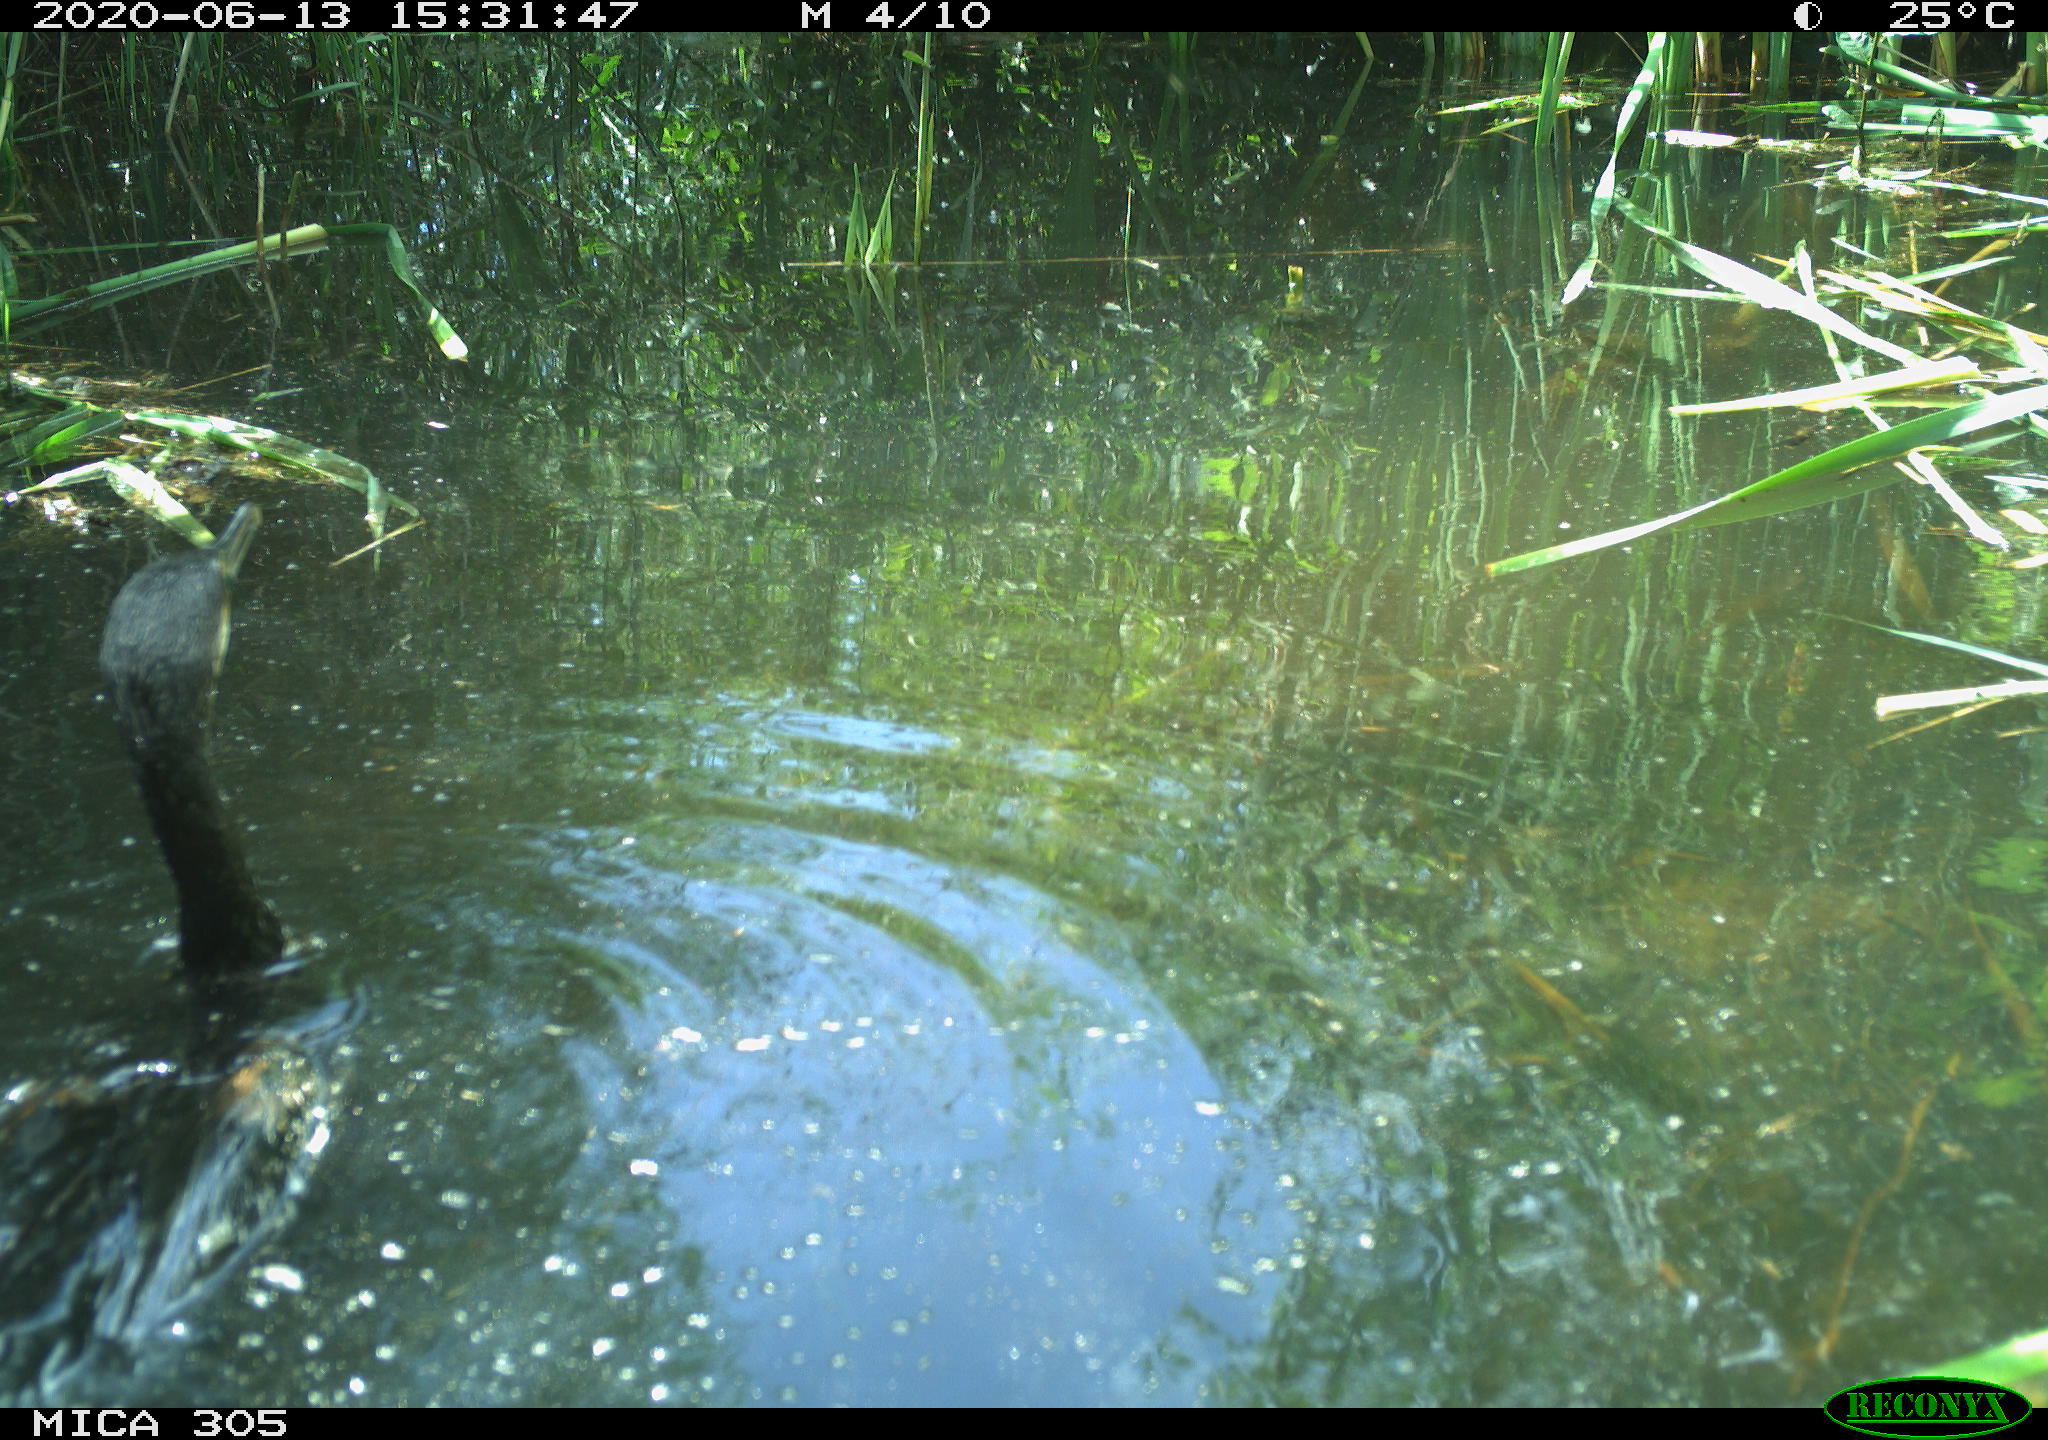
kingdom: Animalia
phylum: Chordata
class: Aves
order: Suliformes
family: Phalacrocoracidae
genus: Phalacrocorax
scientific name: Phalacrocorax carbo
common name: Great cormorant
